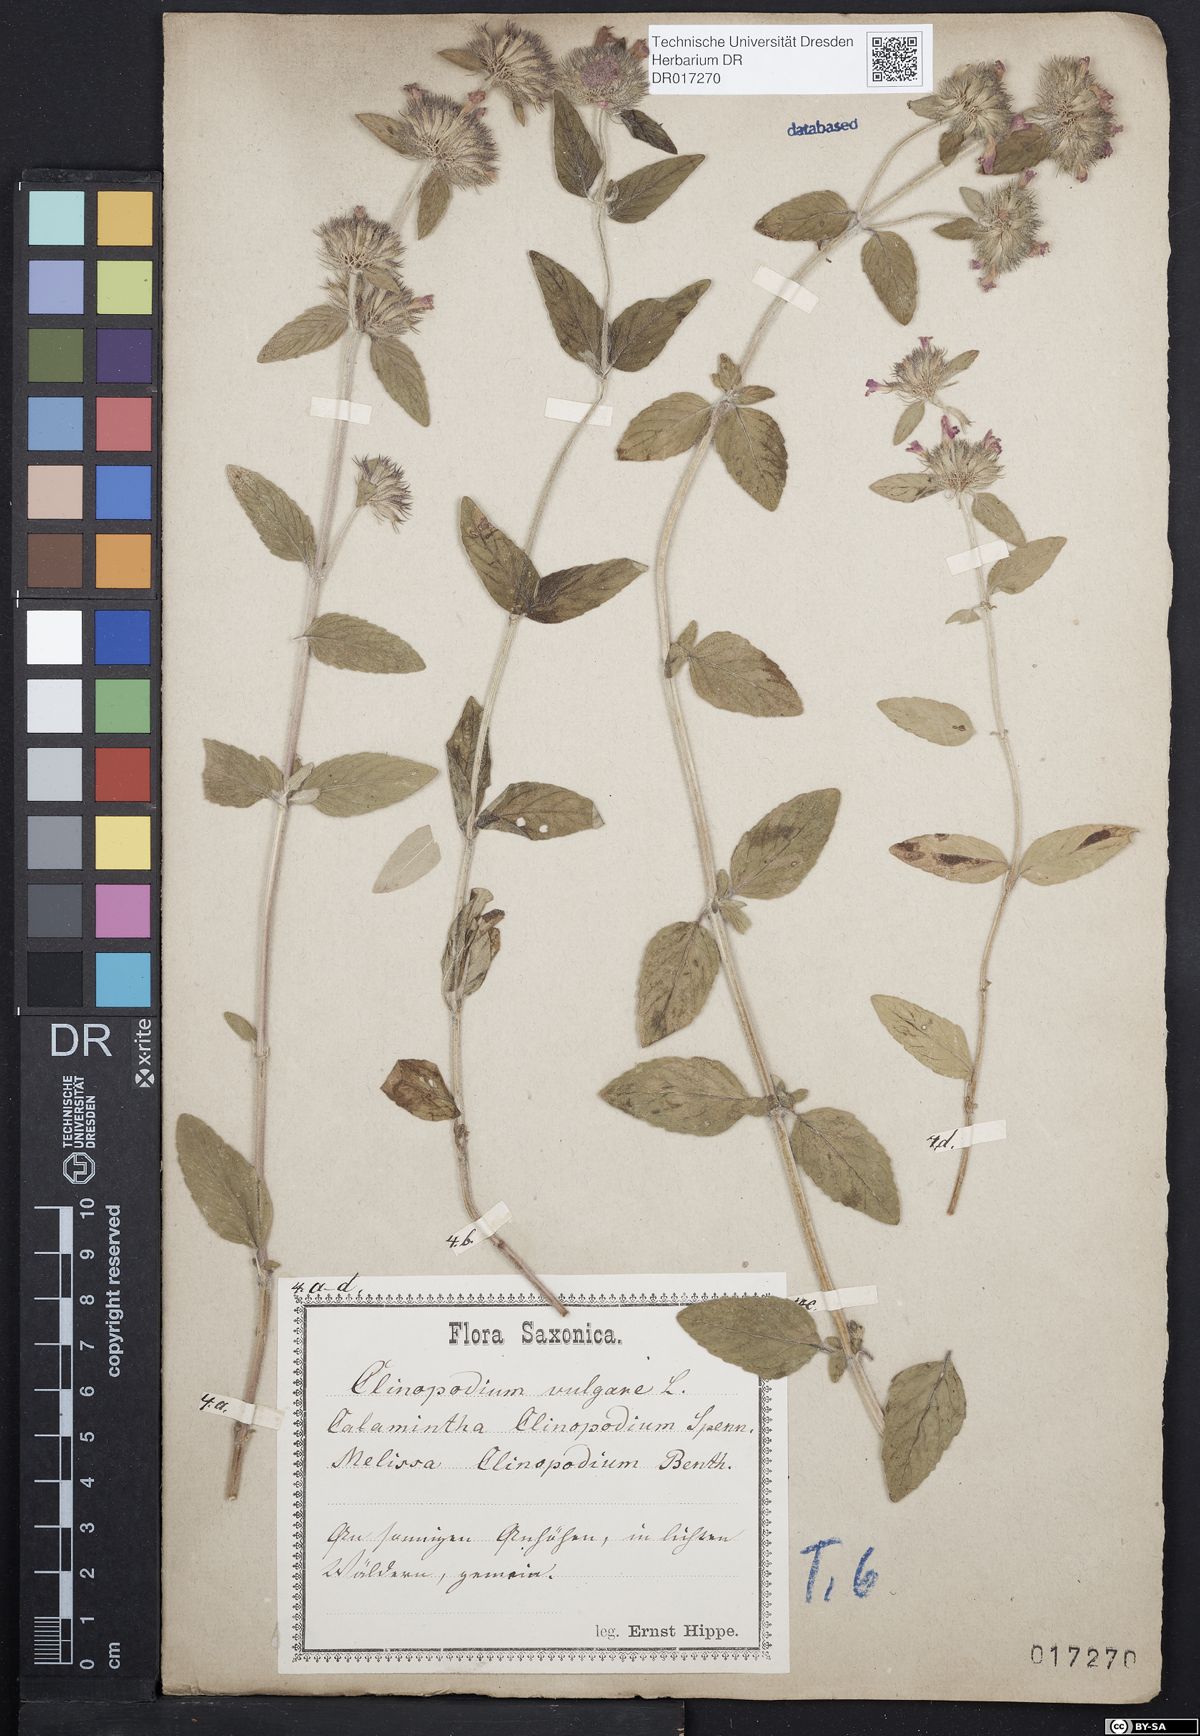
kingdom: Plantae
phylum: Tracheophyta
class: Magnoliopsida
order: Lamiales
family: Lamiaceae
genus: Clinopodium
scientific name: Clinopodium vulgare
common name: Wild basil
